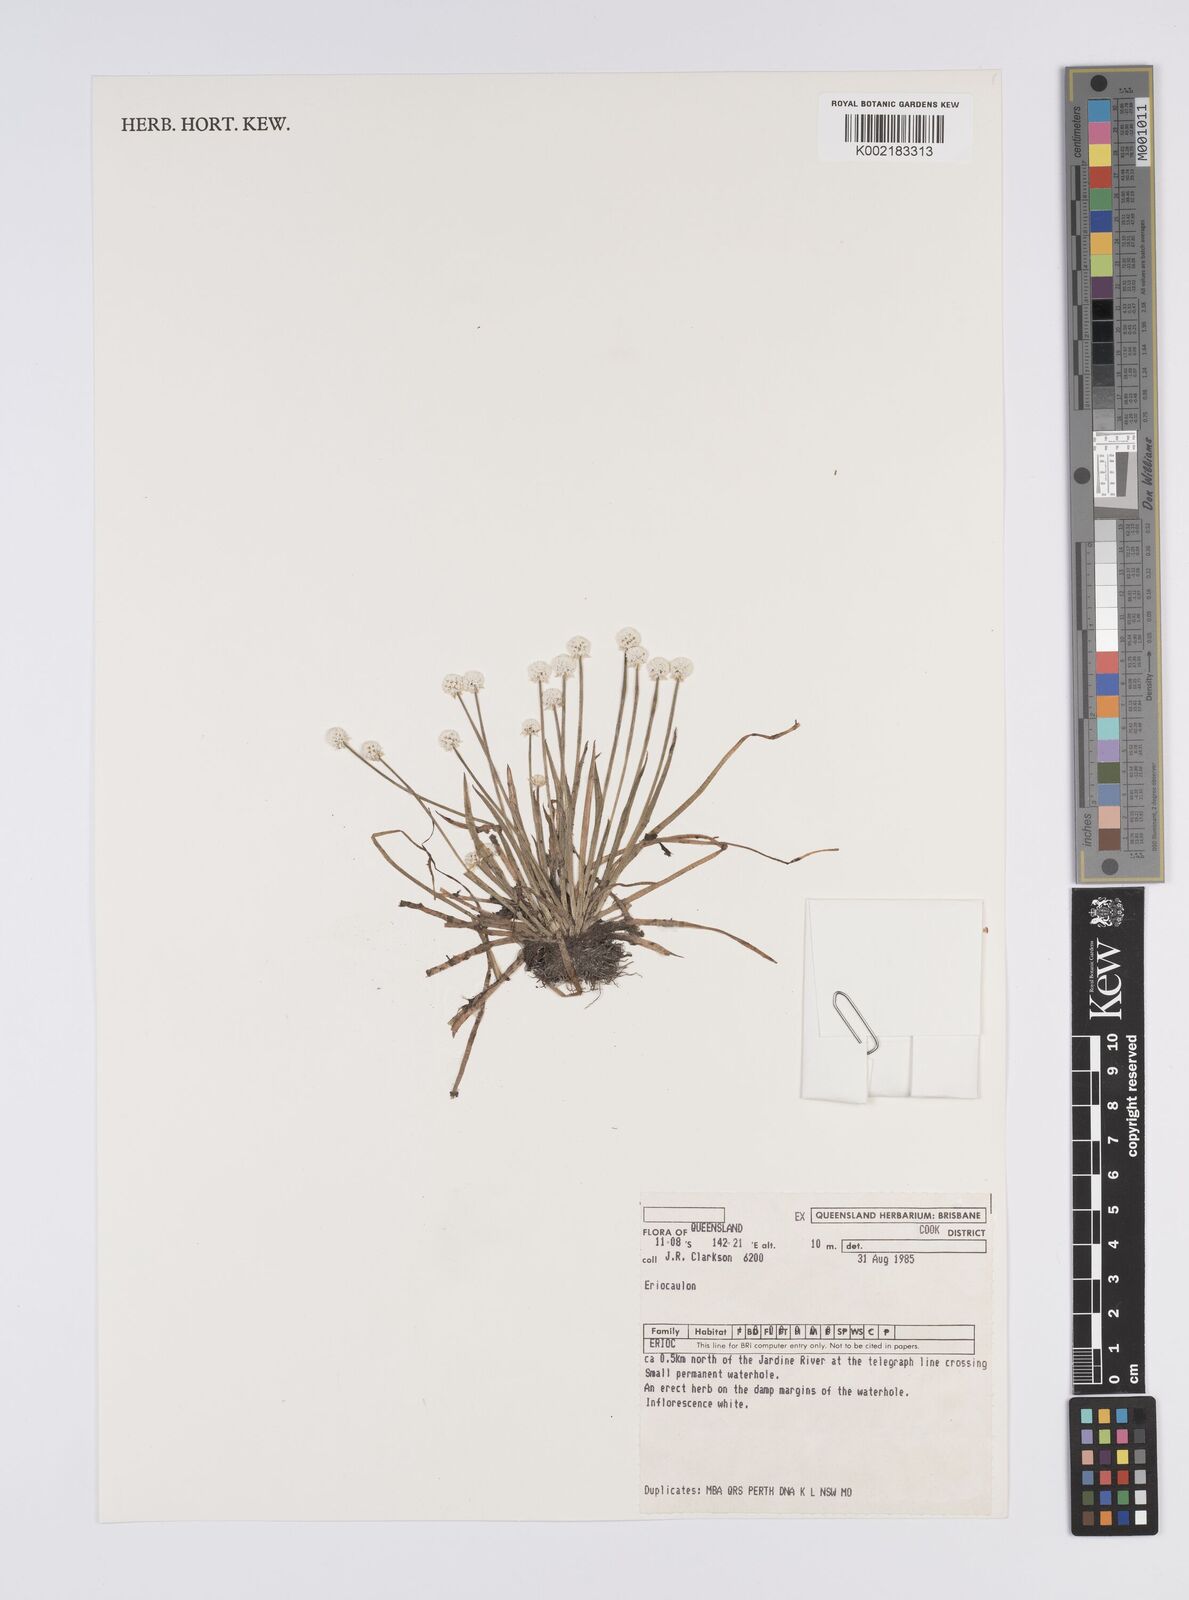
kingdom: Plantae
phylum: Tracheophyta
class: Liliopsida
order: Poales
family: Eriocaulaceae
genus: Eriocaulon
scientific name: Eriocaulon
